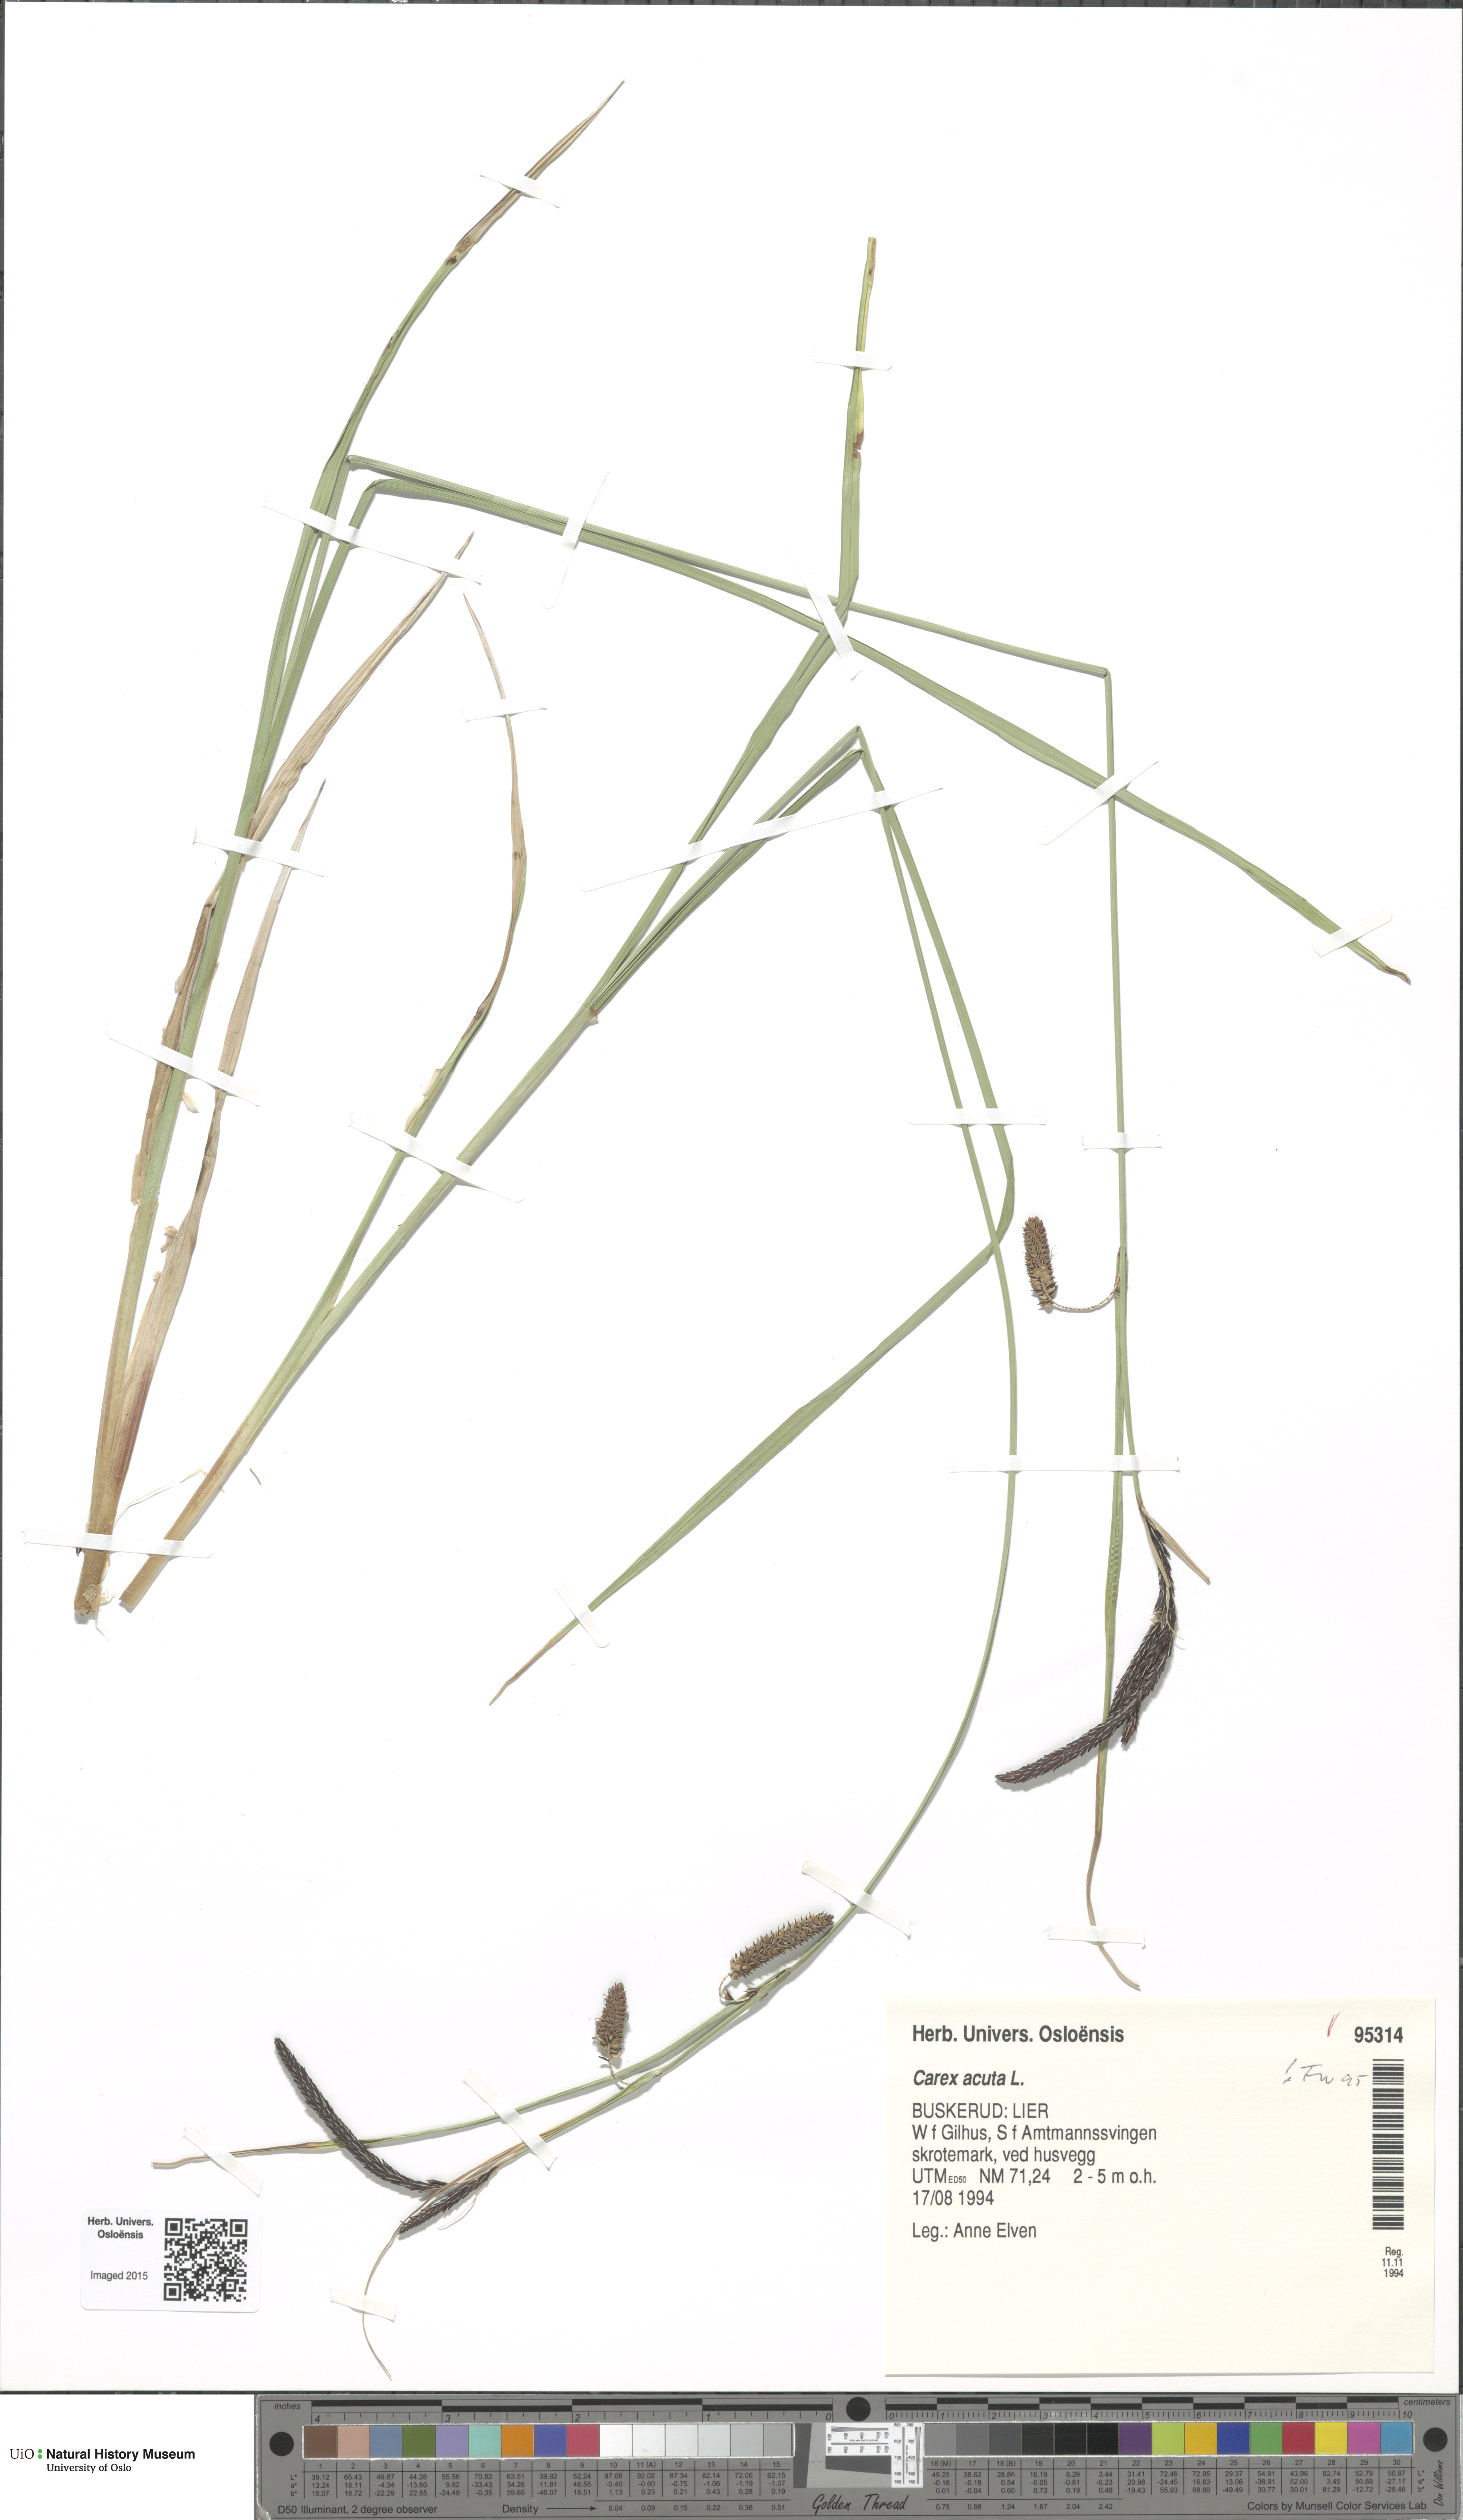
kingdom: Plantae
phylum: Tracheophyta
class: Liliopsida
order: Poales
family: Cyperaceae
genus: Carex
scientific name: Carex acuta
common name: Slender tufted-sedge
